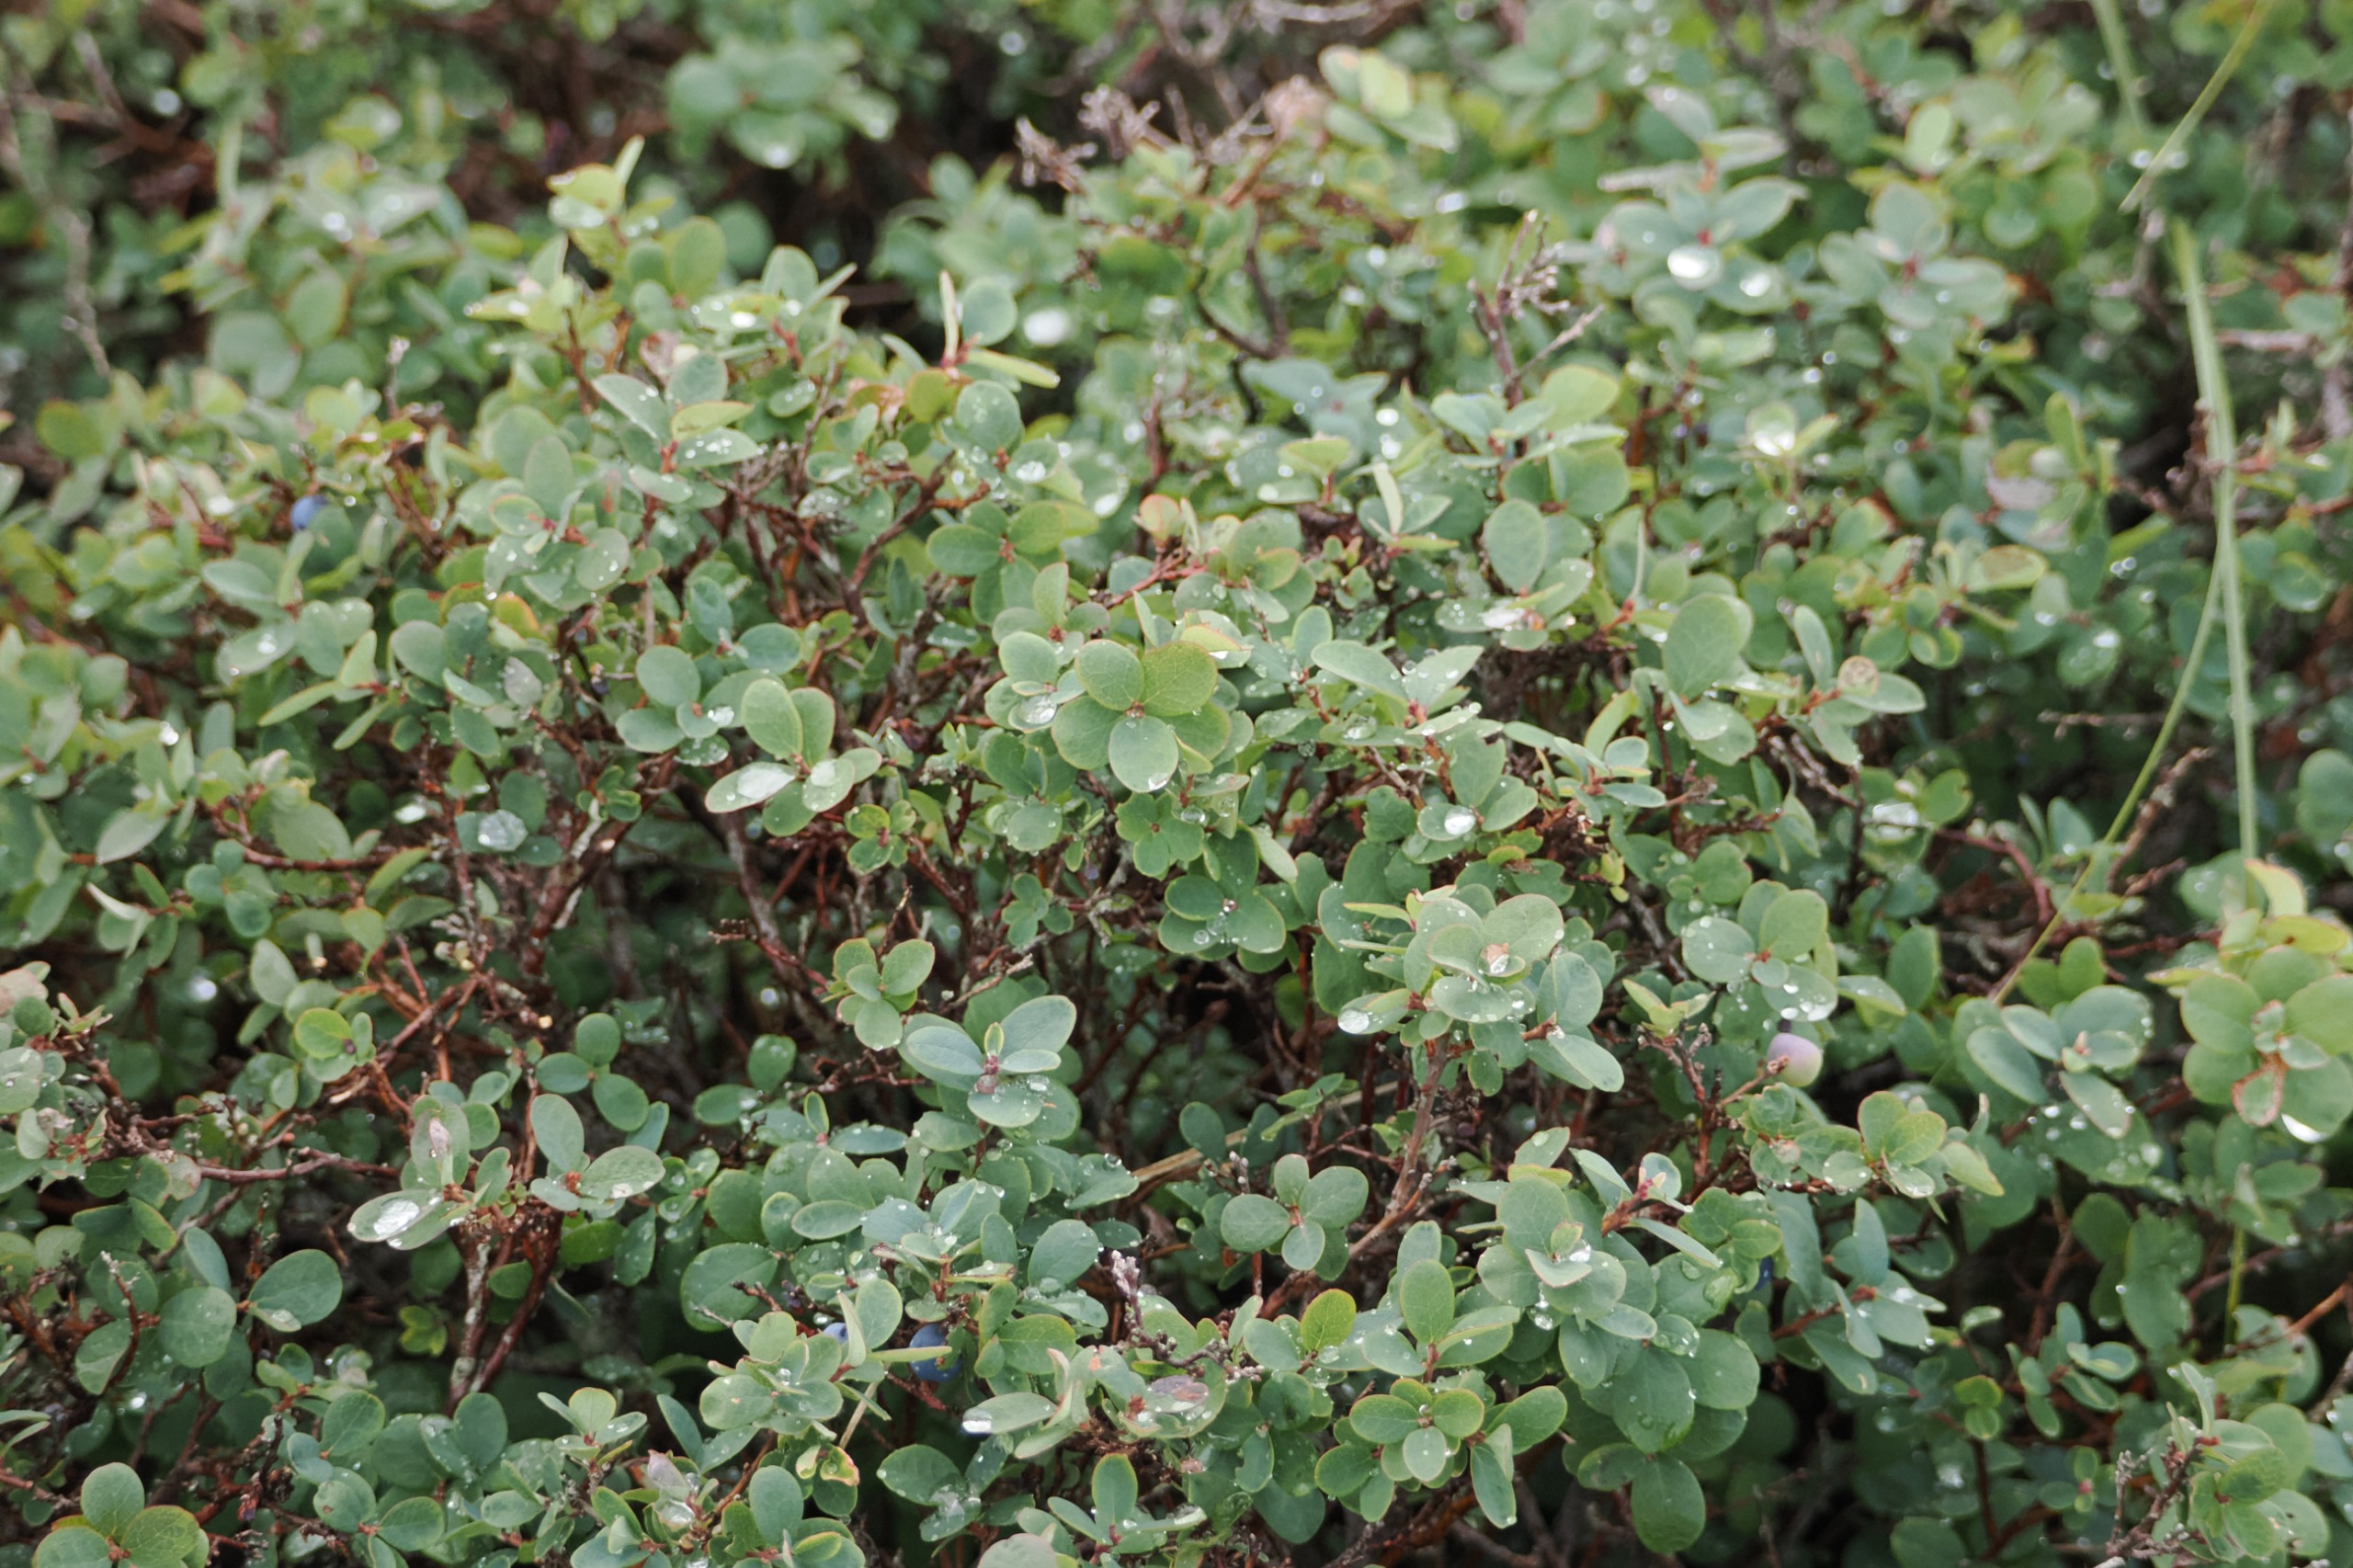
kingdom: Plantae
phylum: Tracheophyta
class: Magnoliopsida
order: Ericales
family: Ericaceae
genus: Vaccinium
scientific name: Vaccinium uliginosum
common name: Mose-bølle
